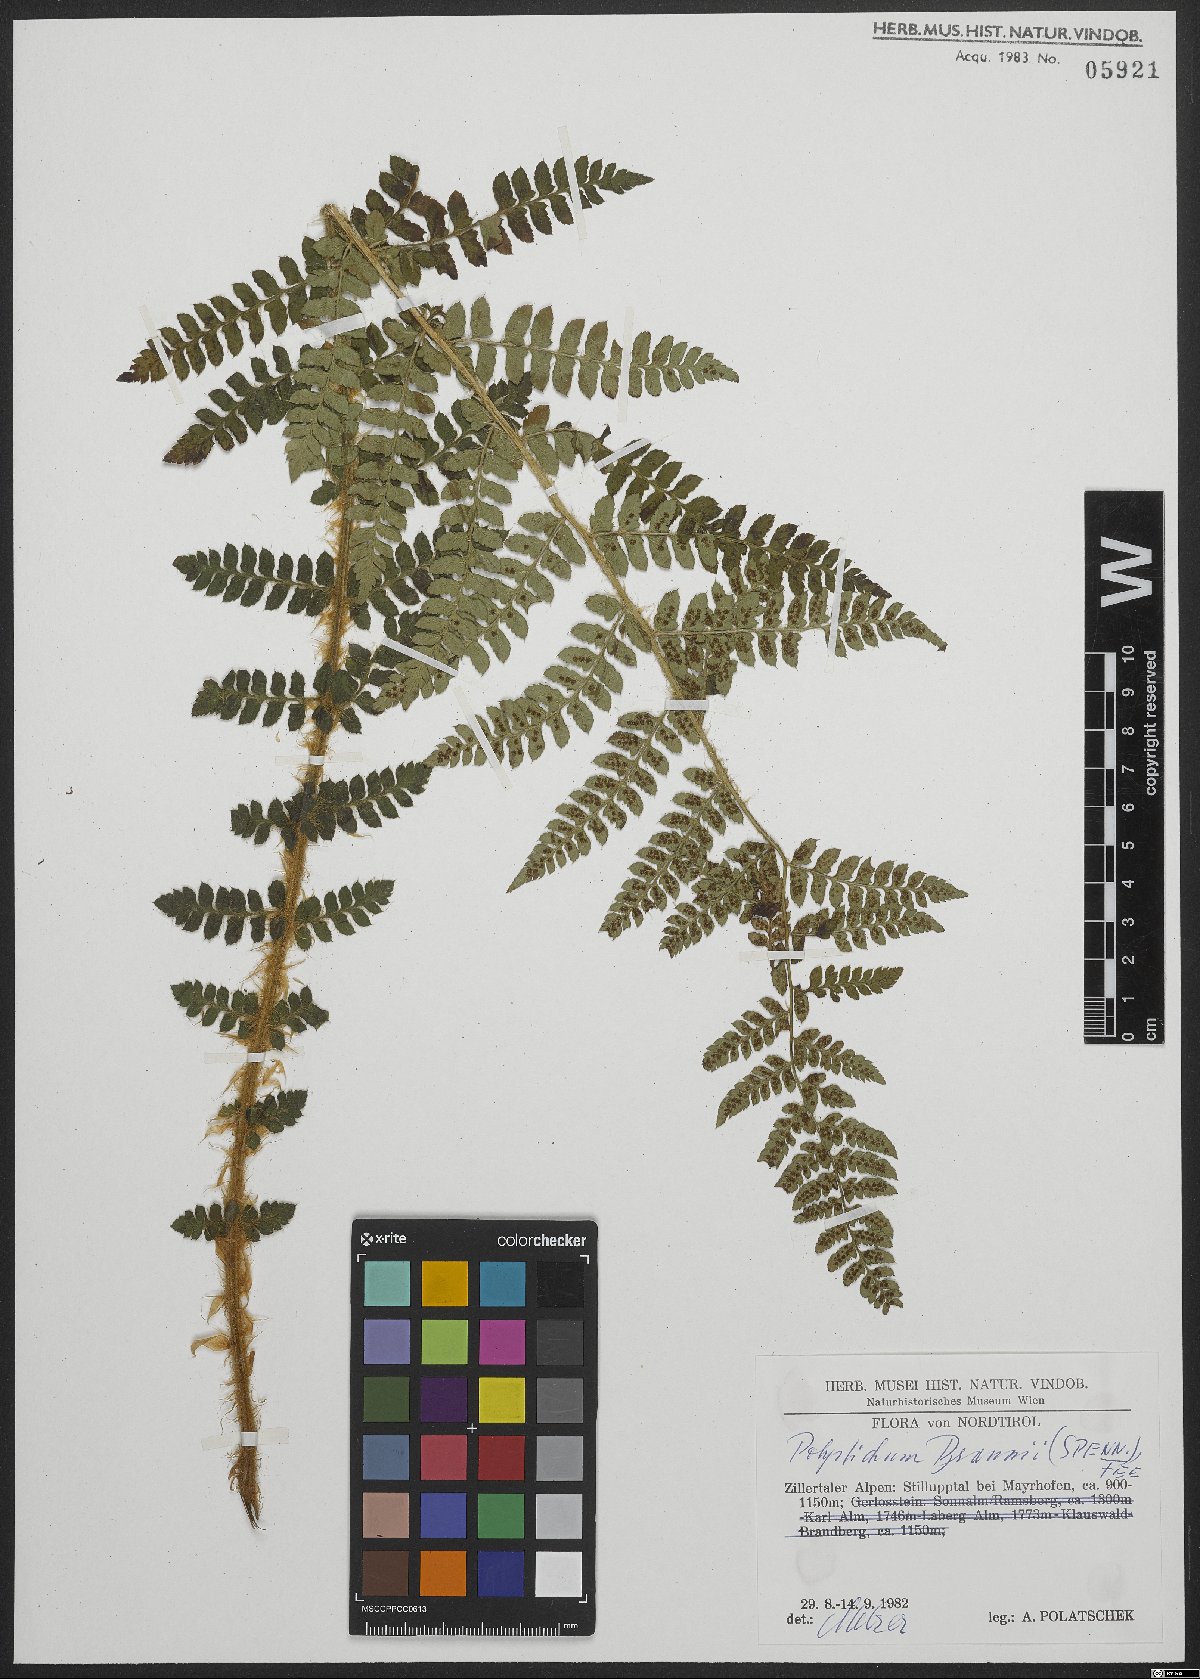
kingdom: Plantae
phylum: Tracheophyta
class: Polypodiopsida
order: Polypodiales
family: Dryopteridaceae
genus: Polystichum
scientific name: Polystichum braunii
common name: Braun's holly fern
